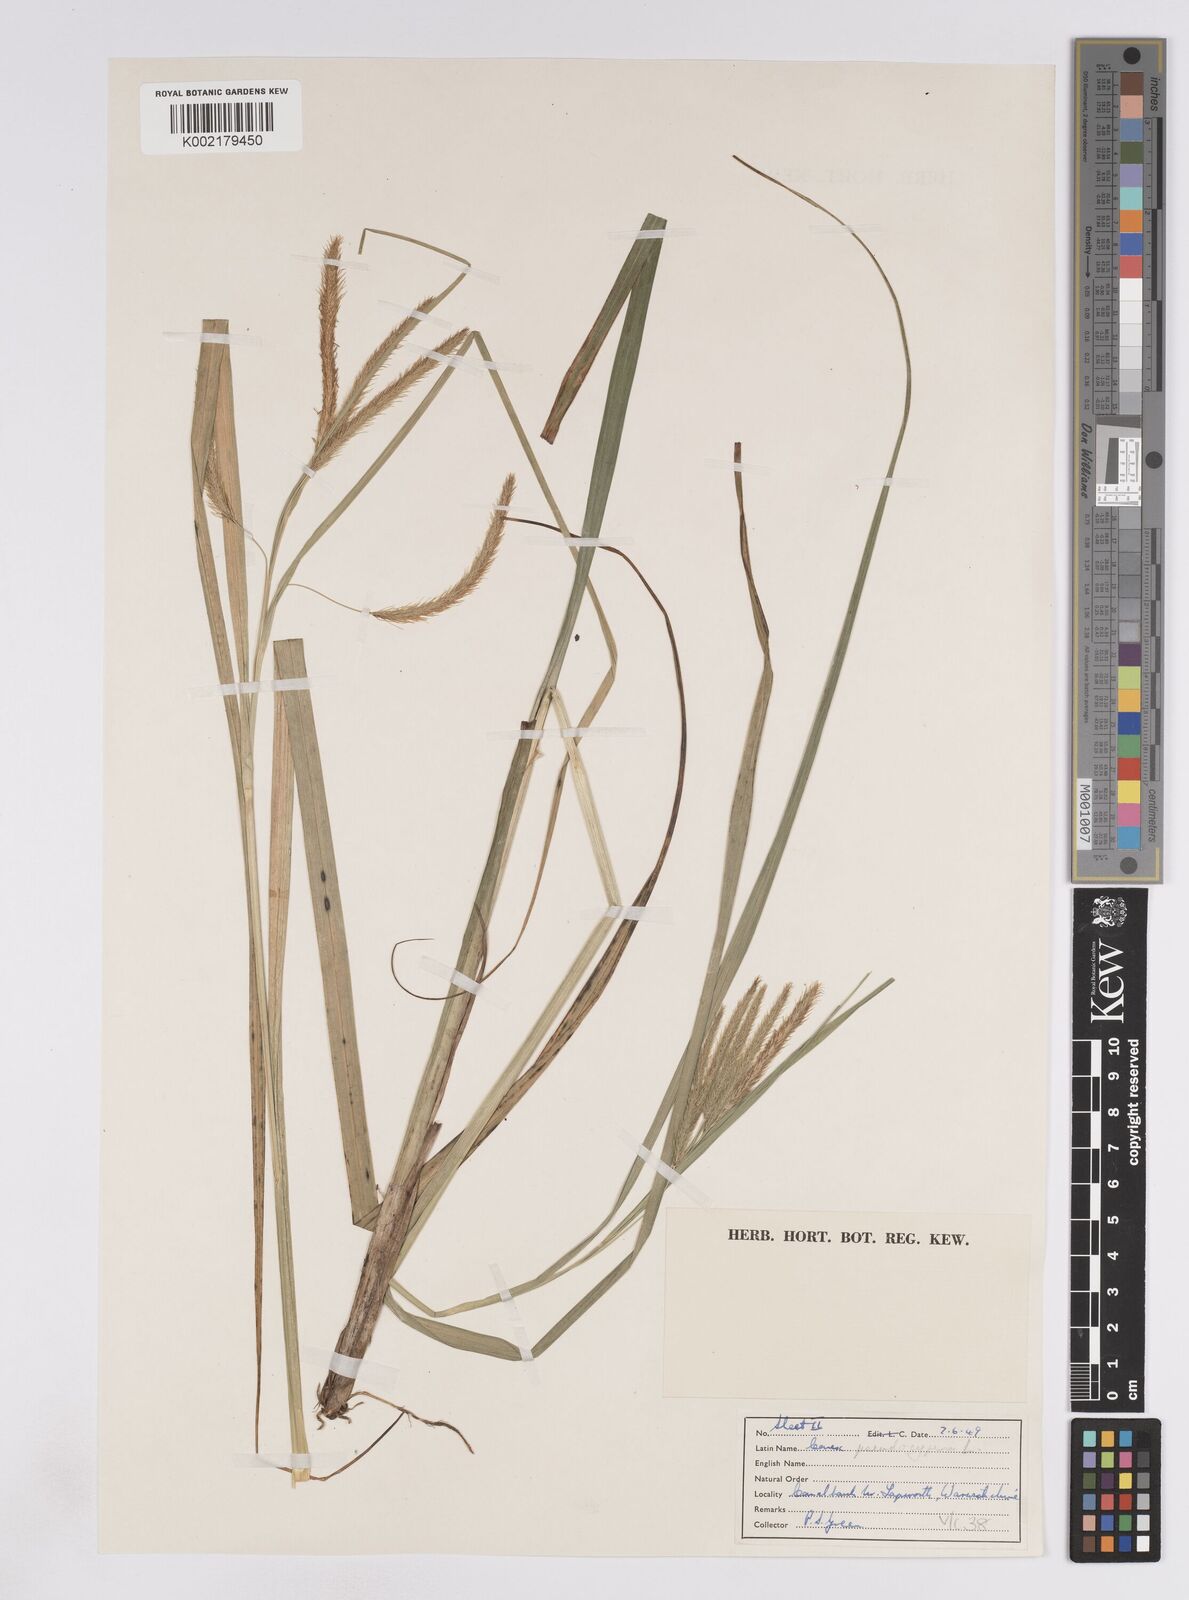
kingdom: Plantae
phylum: Tracheophyta
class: Liliopsida
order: Poales
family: Cyperaceae
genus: Carex
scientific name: Carex pseudocyperus
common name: Cyperus sedge
